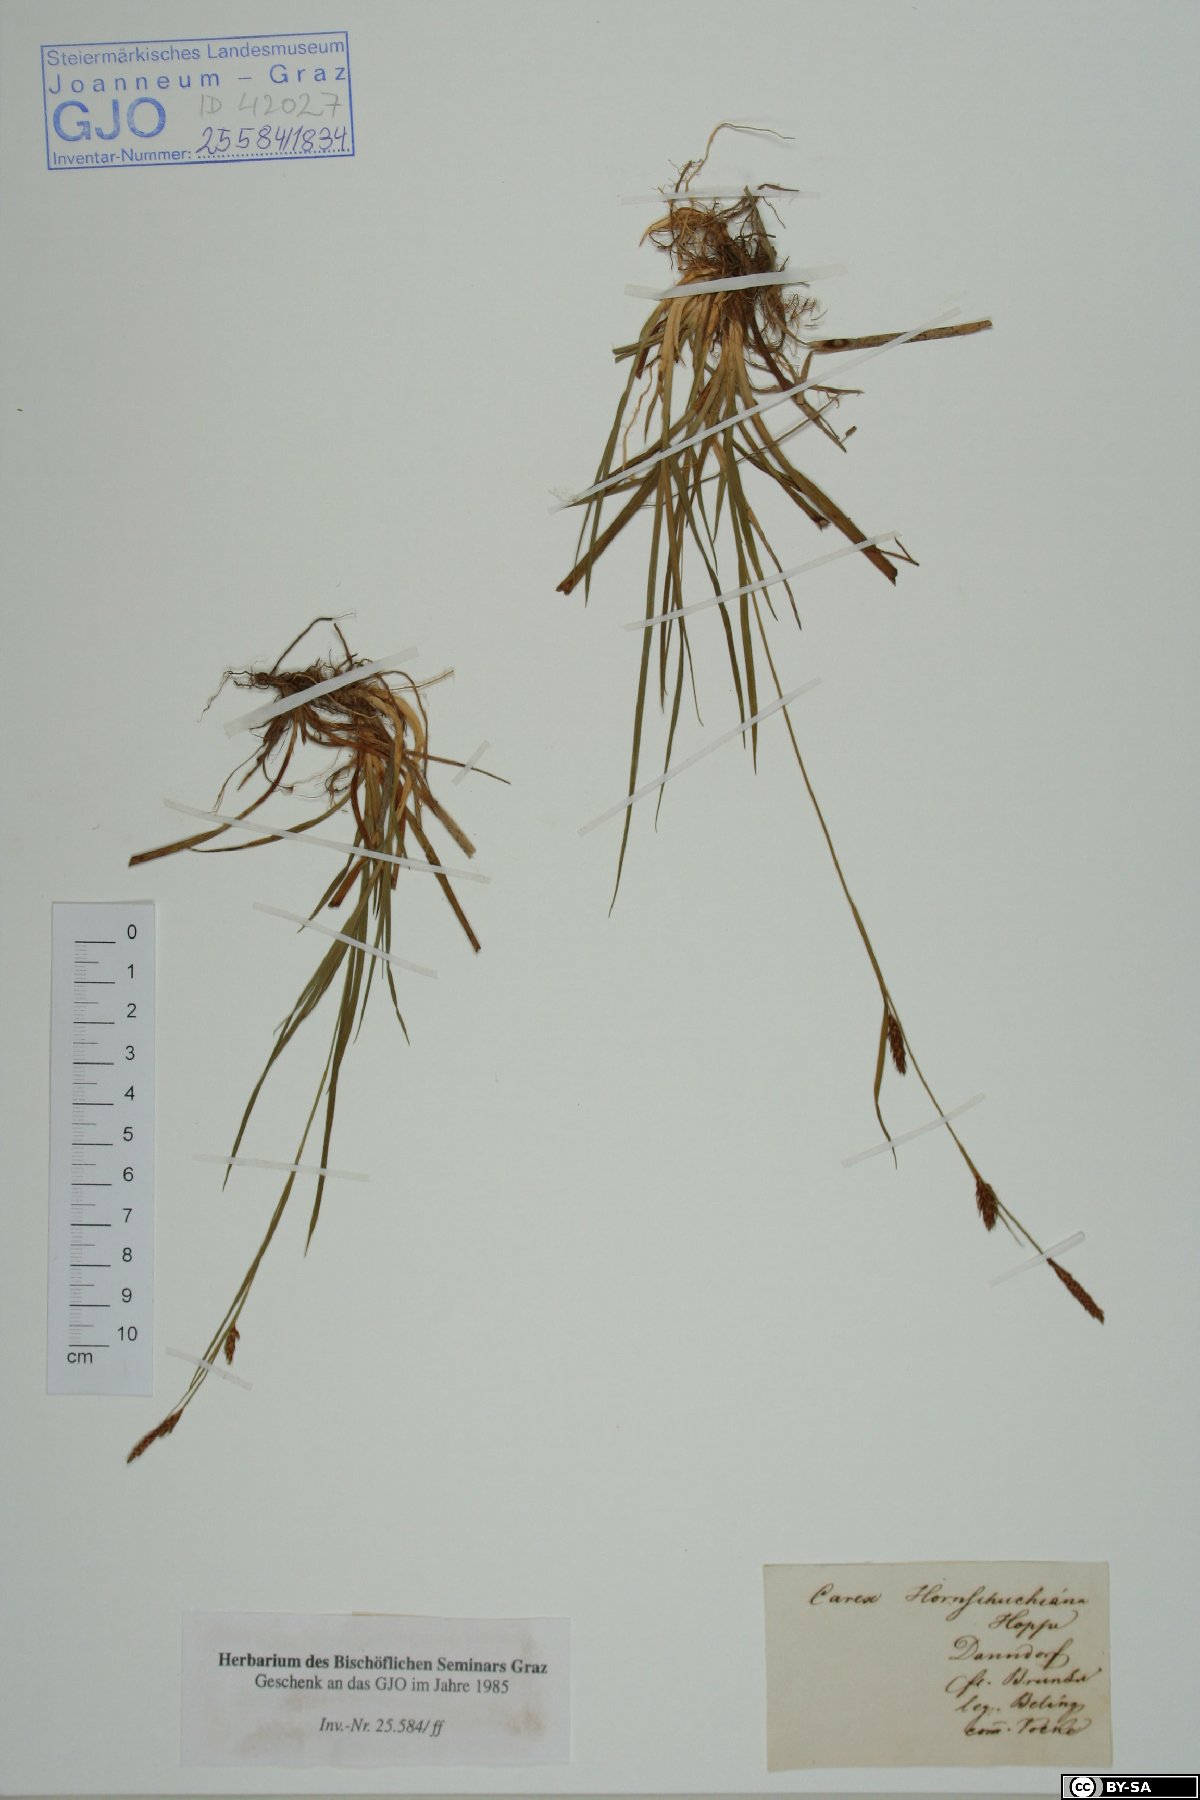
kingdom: Plantae
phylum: Tracheophyta
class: Liliopsida
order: Poales
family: Cyperaceae
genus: Carex
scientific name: Carex hostiana
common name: Tawny sedge
